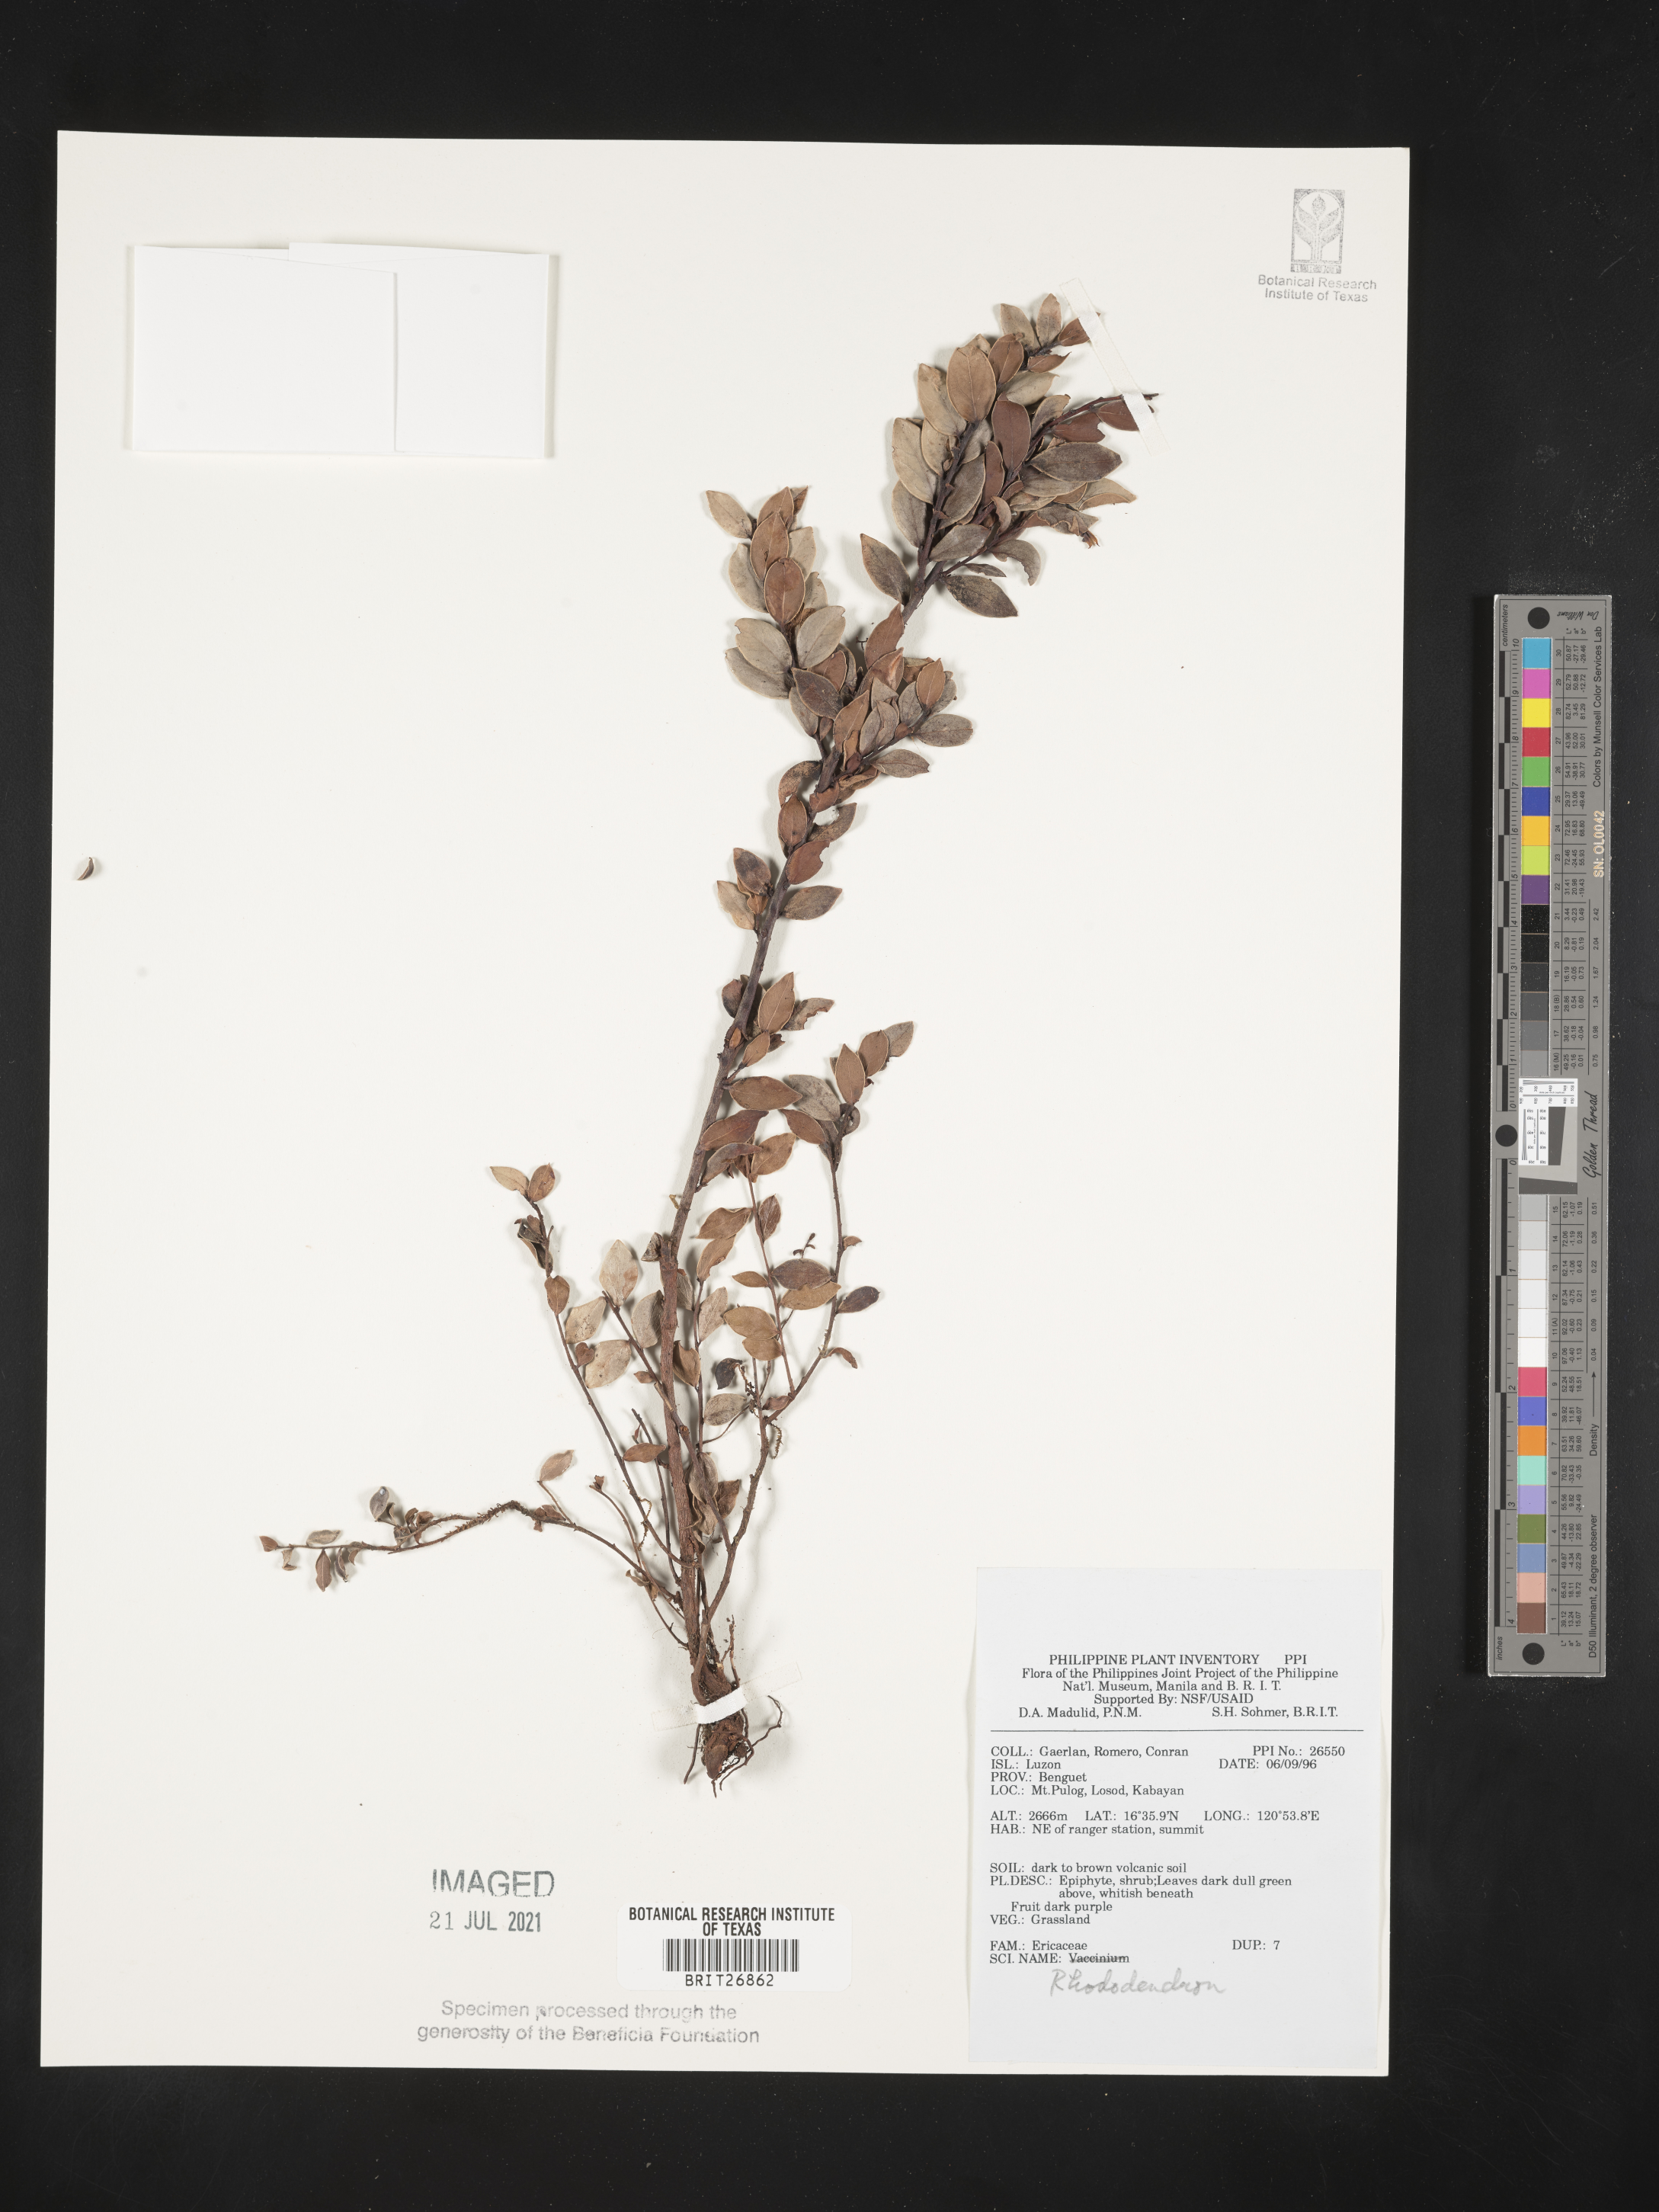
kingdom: Plantae
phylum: Tracheophyta
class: Magnoliopsida
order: Ericales
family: Ericaceae
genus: Rhododendron
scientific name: Rhododendron
